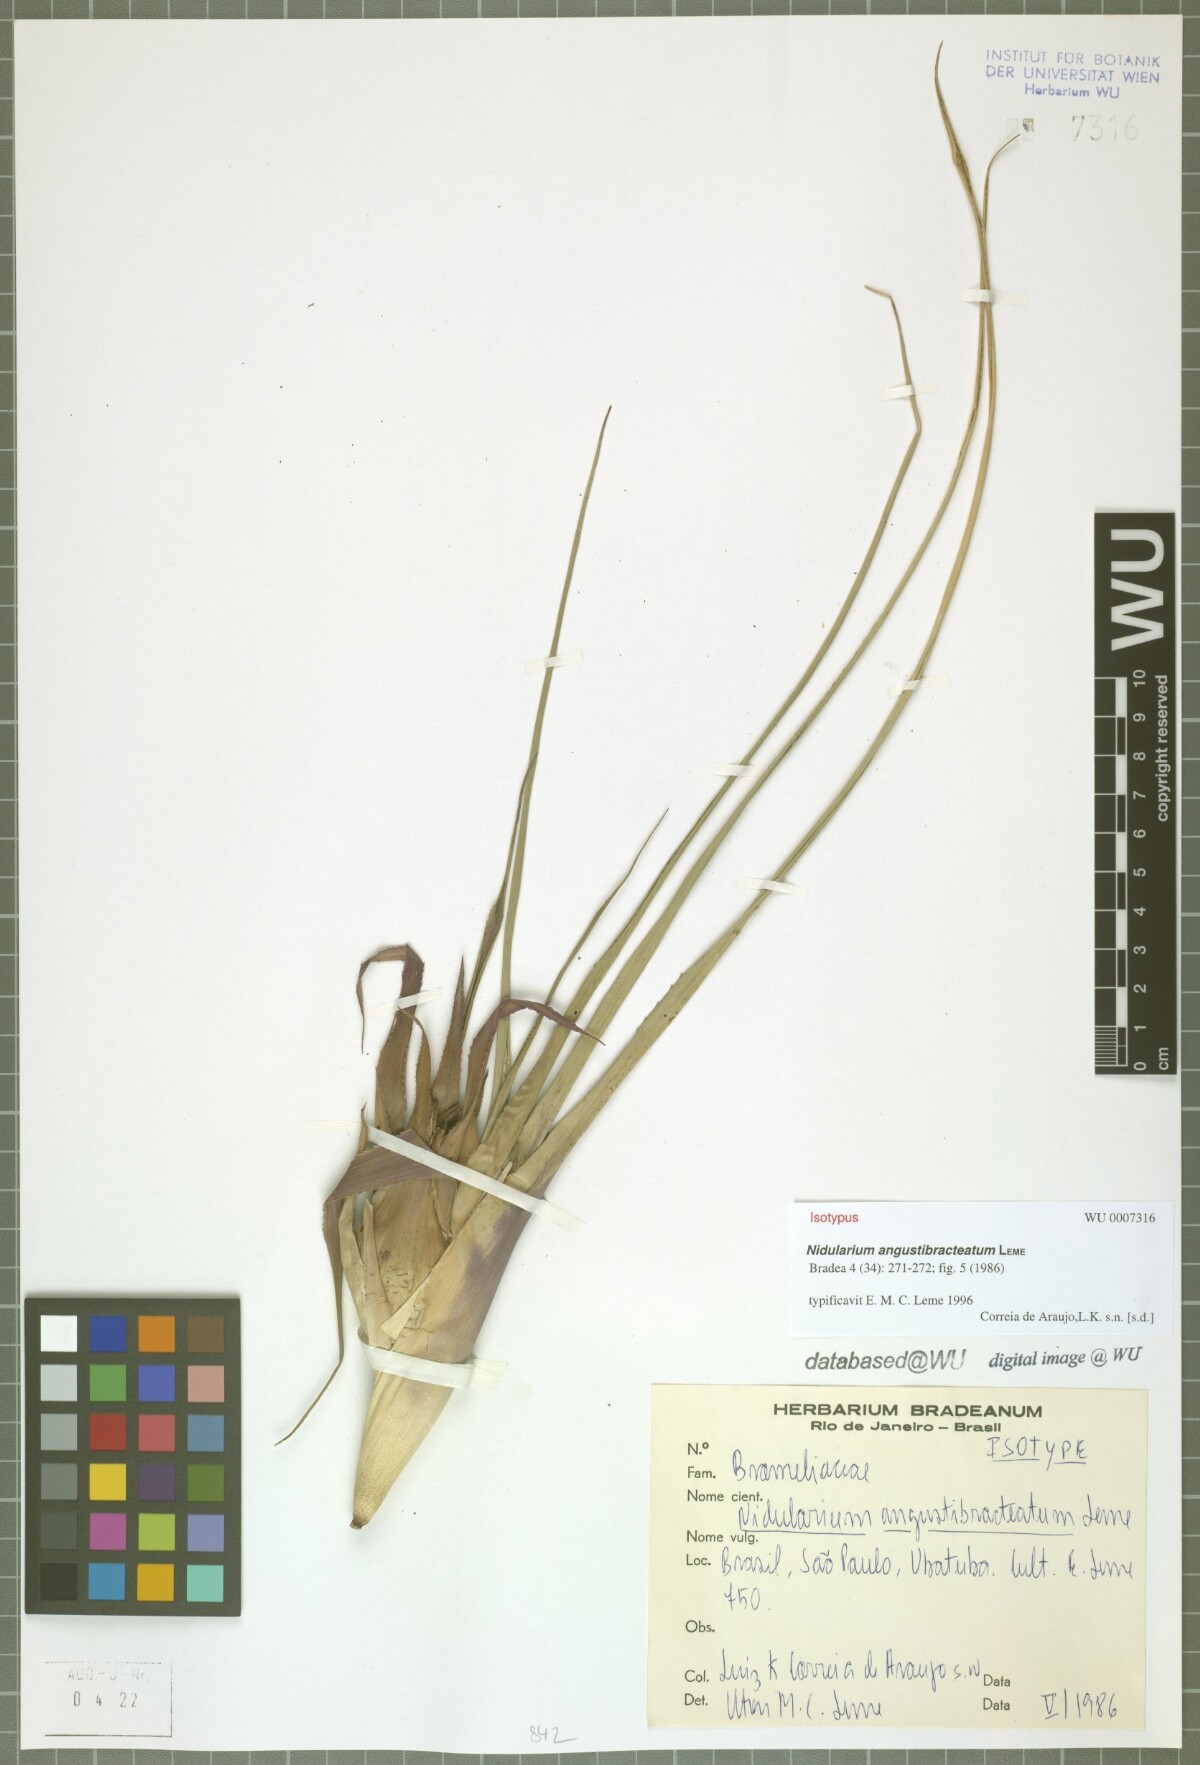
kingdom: Plantae
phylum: Tracheophyta
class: Liliopsida
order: Poales
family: Bromeliaceae
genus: Nidularium
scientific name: Nidularium angustibracteatum
